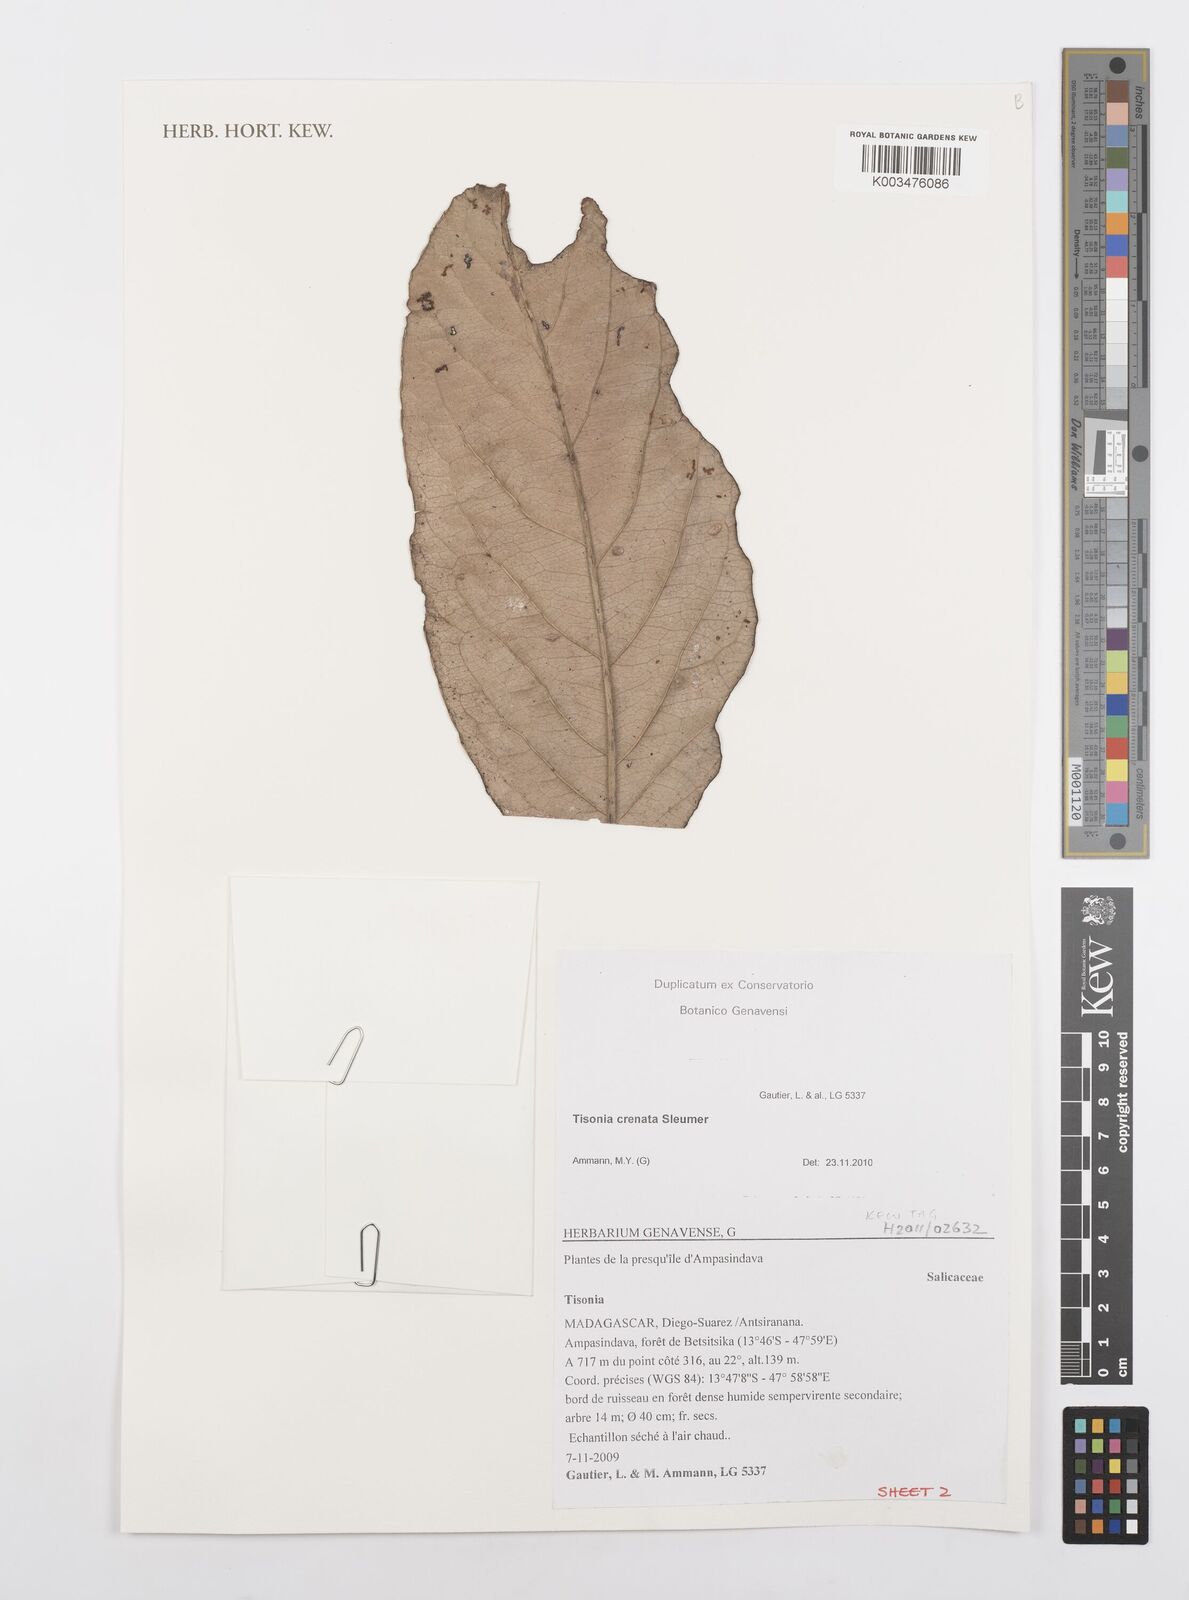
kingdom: Plantae
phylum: Tracheophyta
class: Magnoliopsida
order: Malpighiales
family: Salicaceae
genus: Tisonia
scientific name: Tisonia baronii
